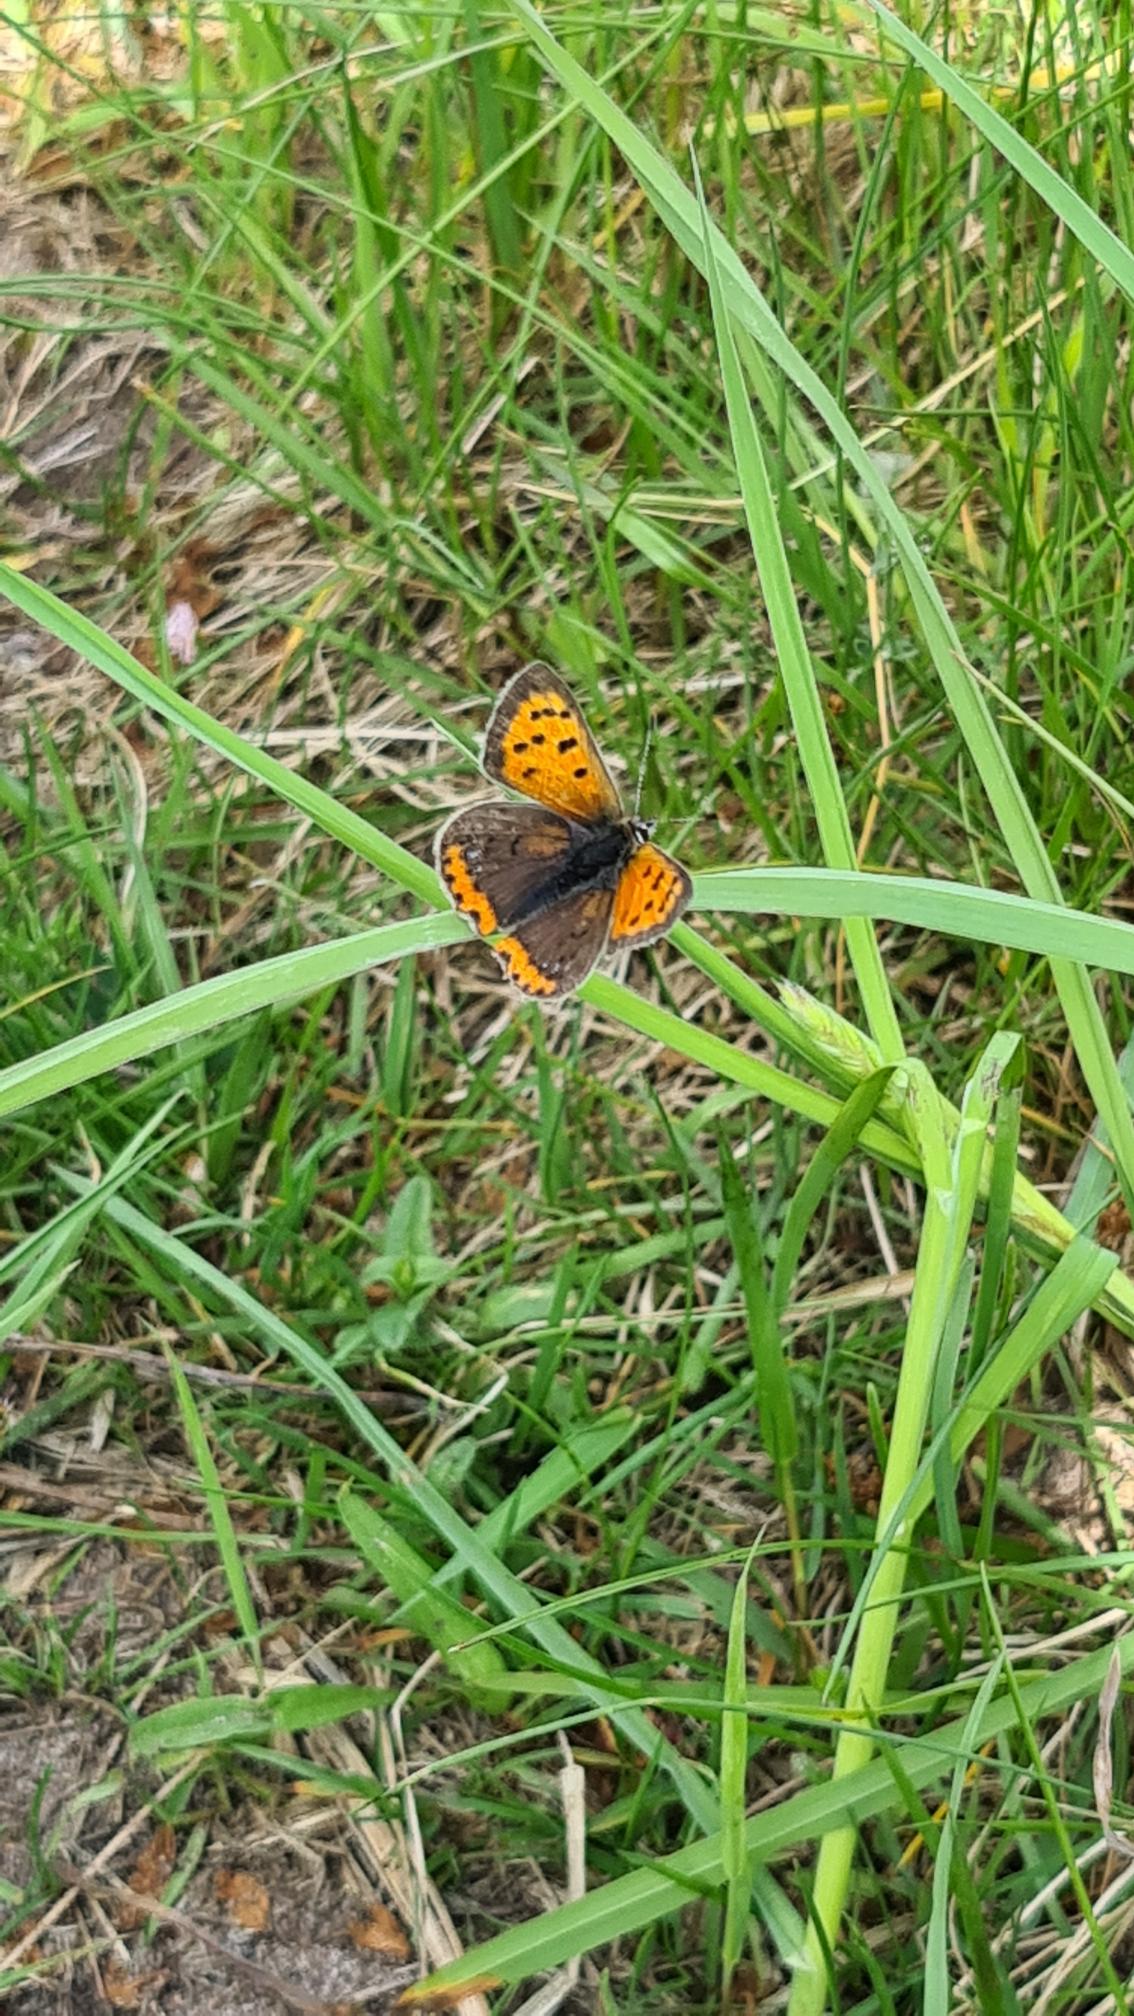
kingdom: Animalia
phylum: Arthropoda
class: Insecta
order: Lepidoptera
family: Lycaenidae
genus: Lycaena
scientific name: Lycaena phlaeas
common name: Lille ildfugl
